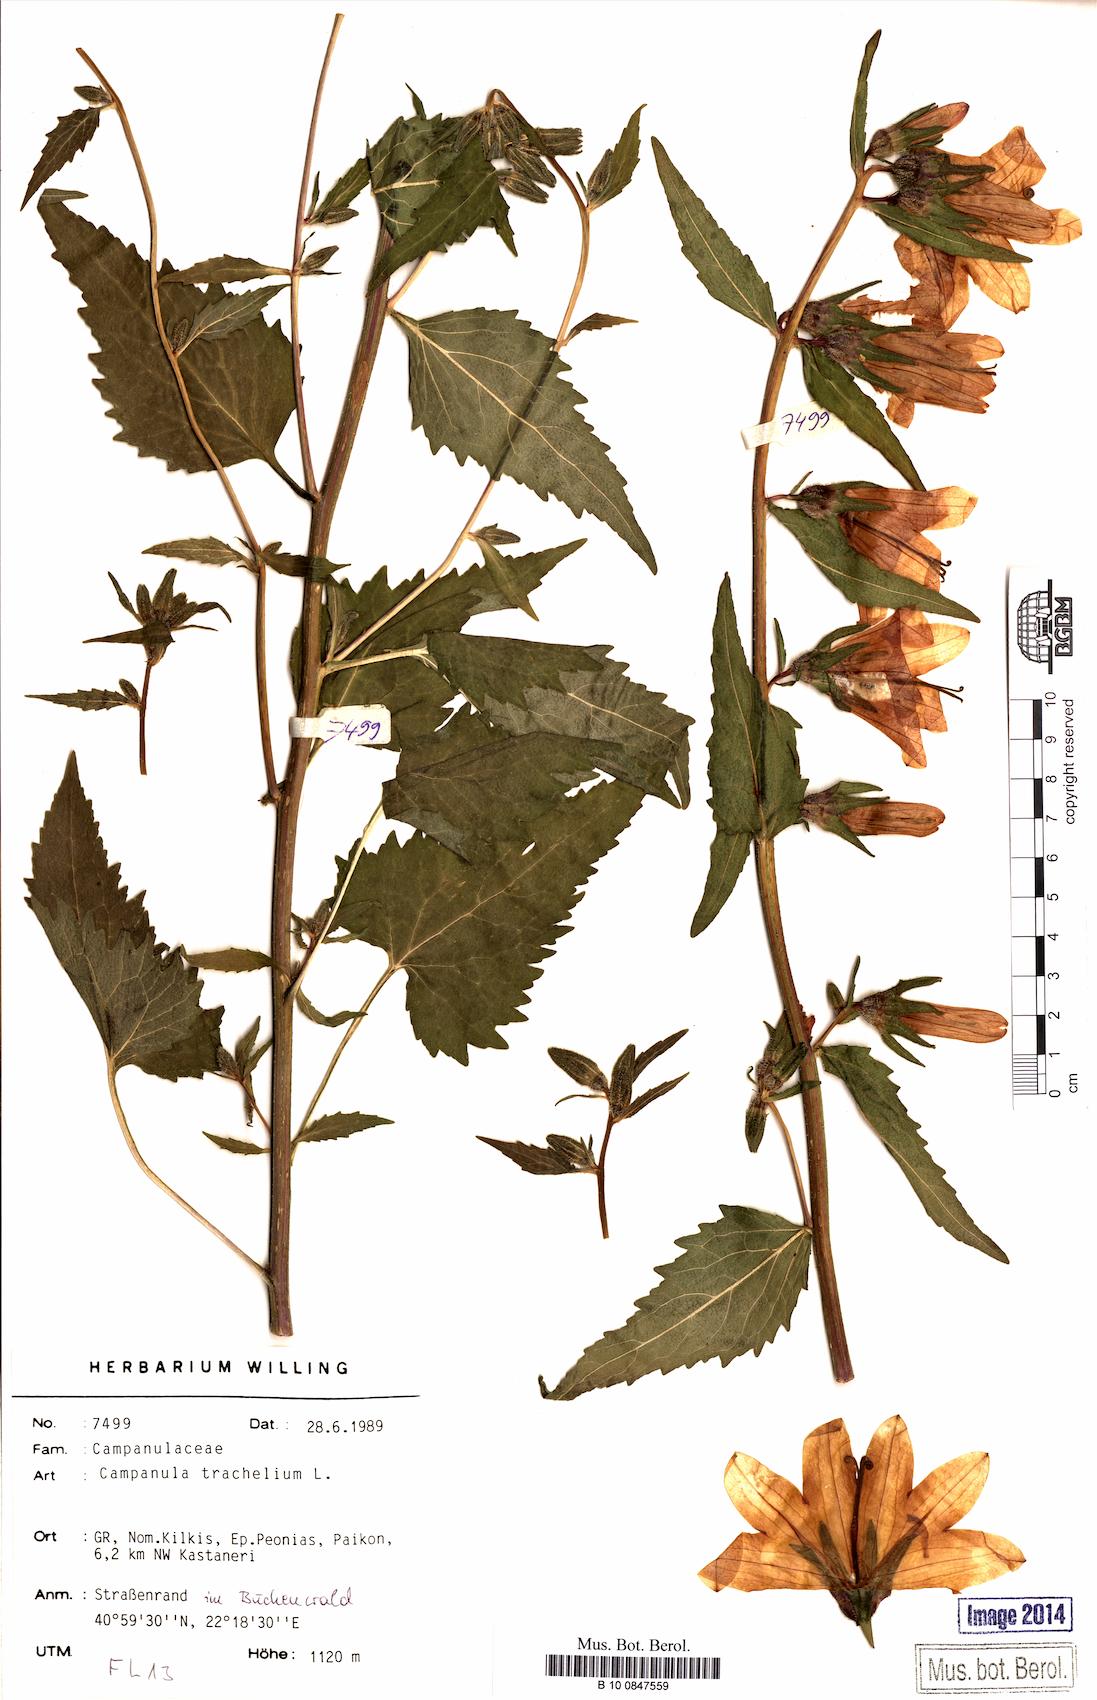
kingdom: Plantae
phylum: Tracheophyta
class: Magnoliopsida
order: Asterales
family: Campanulaceae
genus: Campanula
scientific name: Campanula trachelium
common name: Nettle-leaved bellflower
